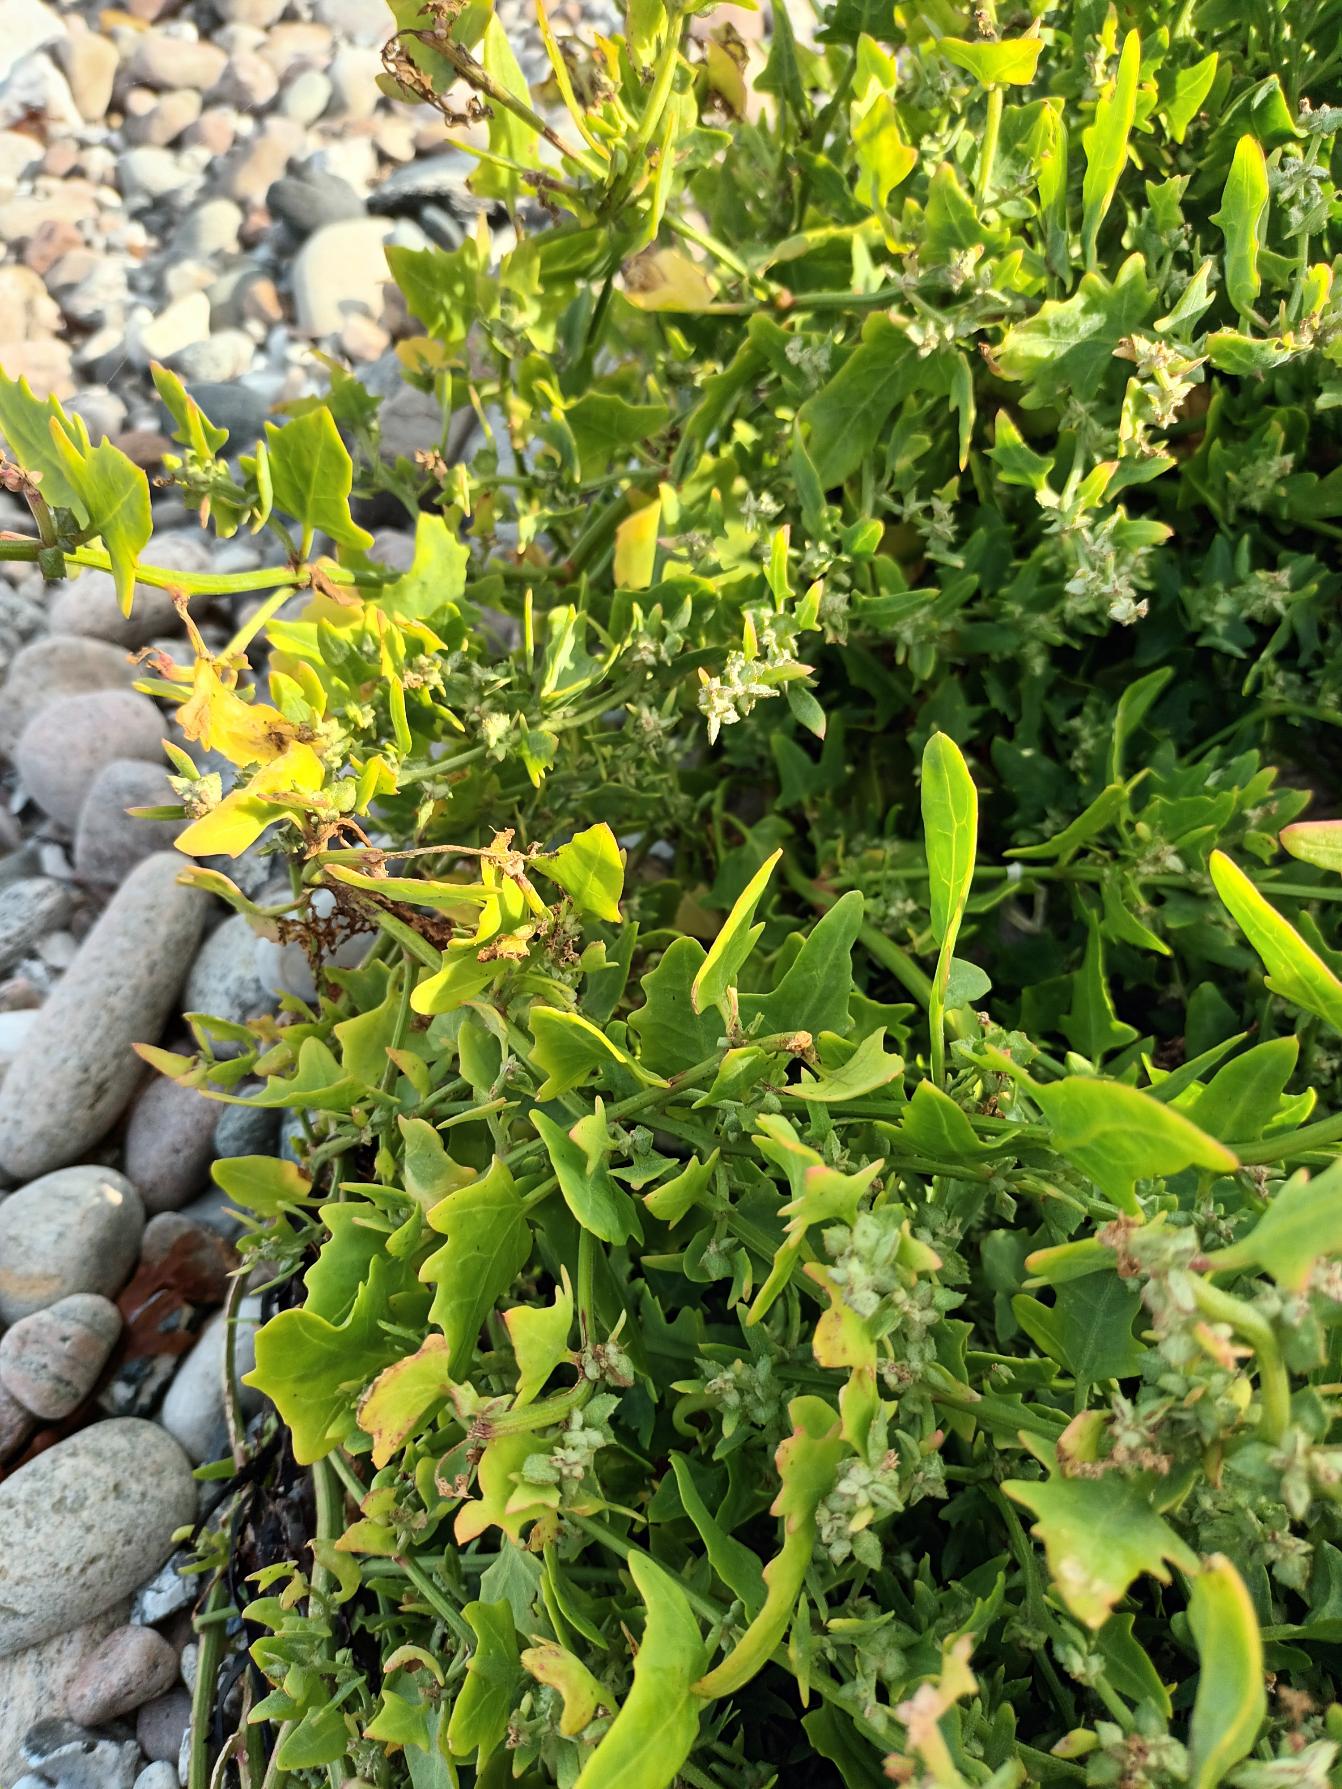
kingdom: Plantae
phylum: Tracheophyta
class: Magnoliopsida
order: Caryophyllales
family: Amaranthaceae
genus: Atriplex
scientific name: Atriplex prostrata
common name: Spyd-mælde
